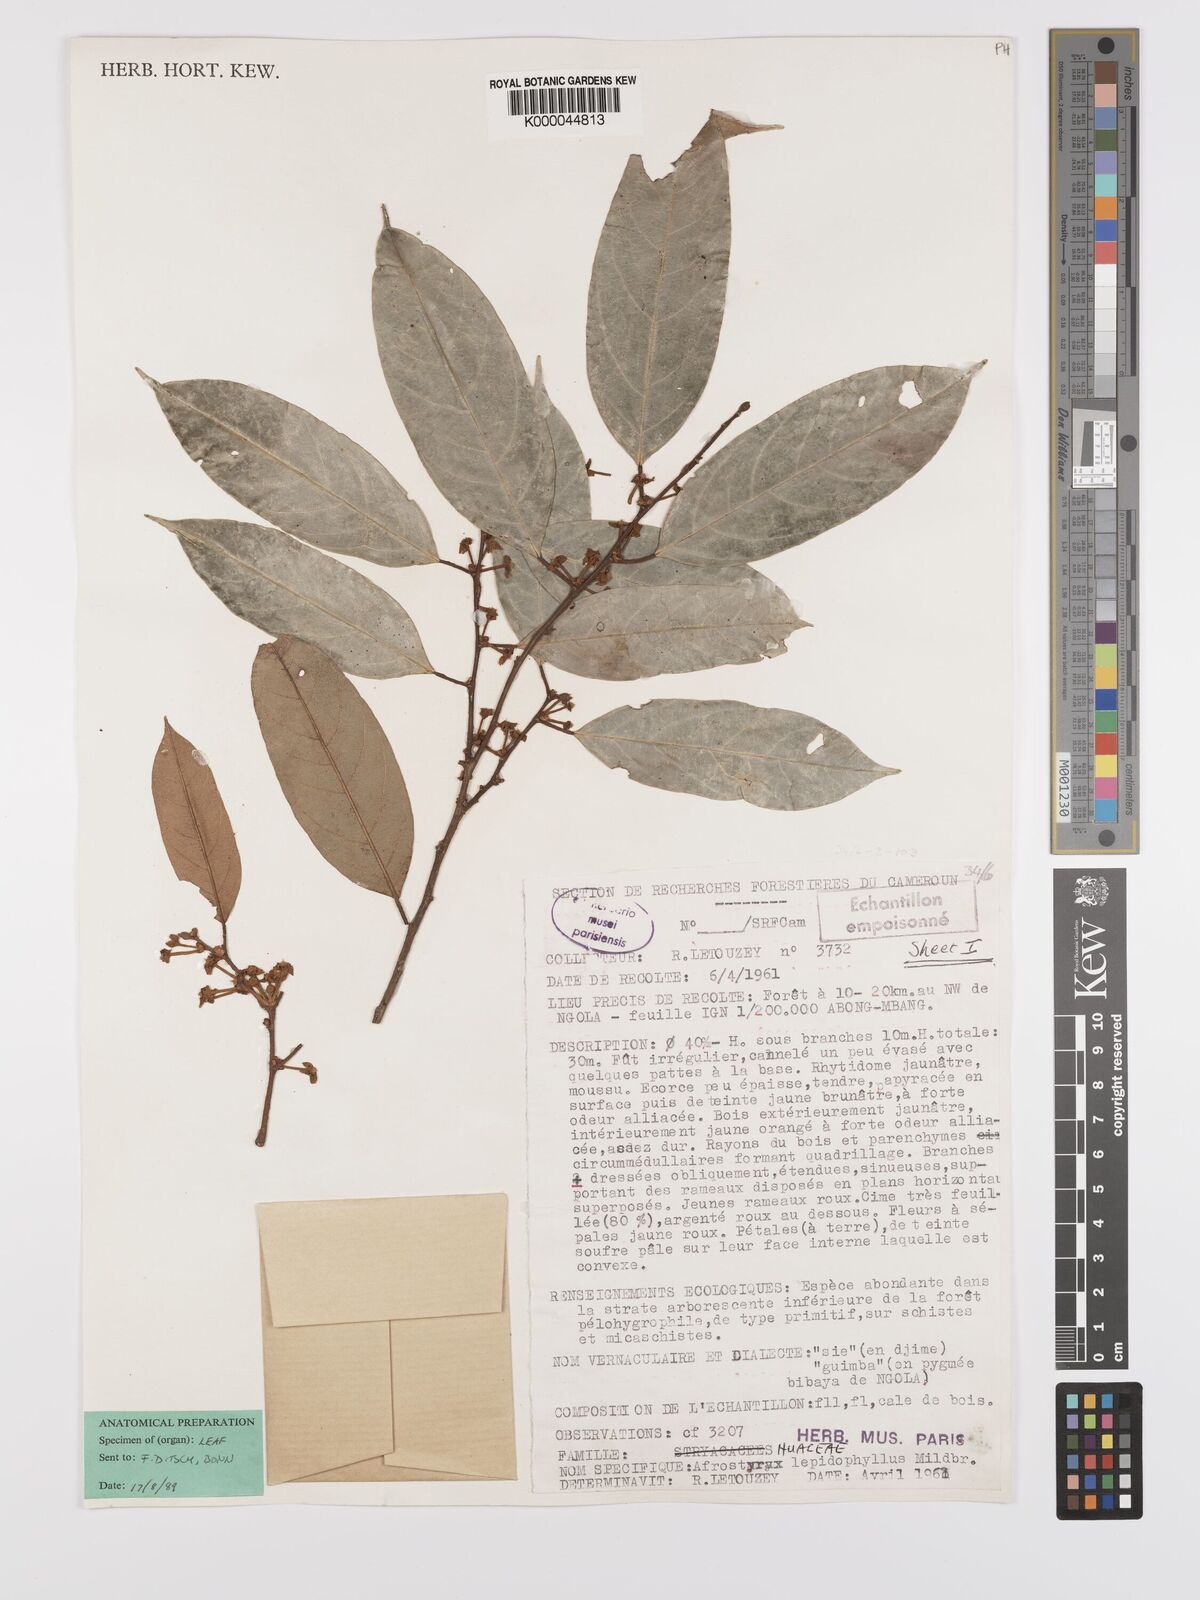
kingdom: Plantae
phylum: Tracheophyta
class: Magnoliopsida
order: Oxalidales
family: Huaceae
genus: Afrostyrax
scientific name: Afrostyrax lepidophyllus
